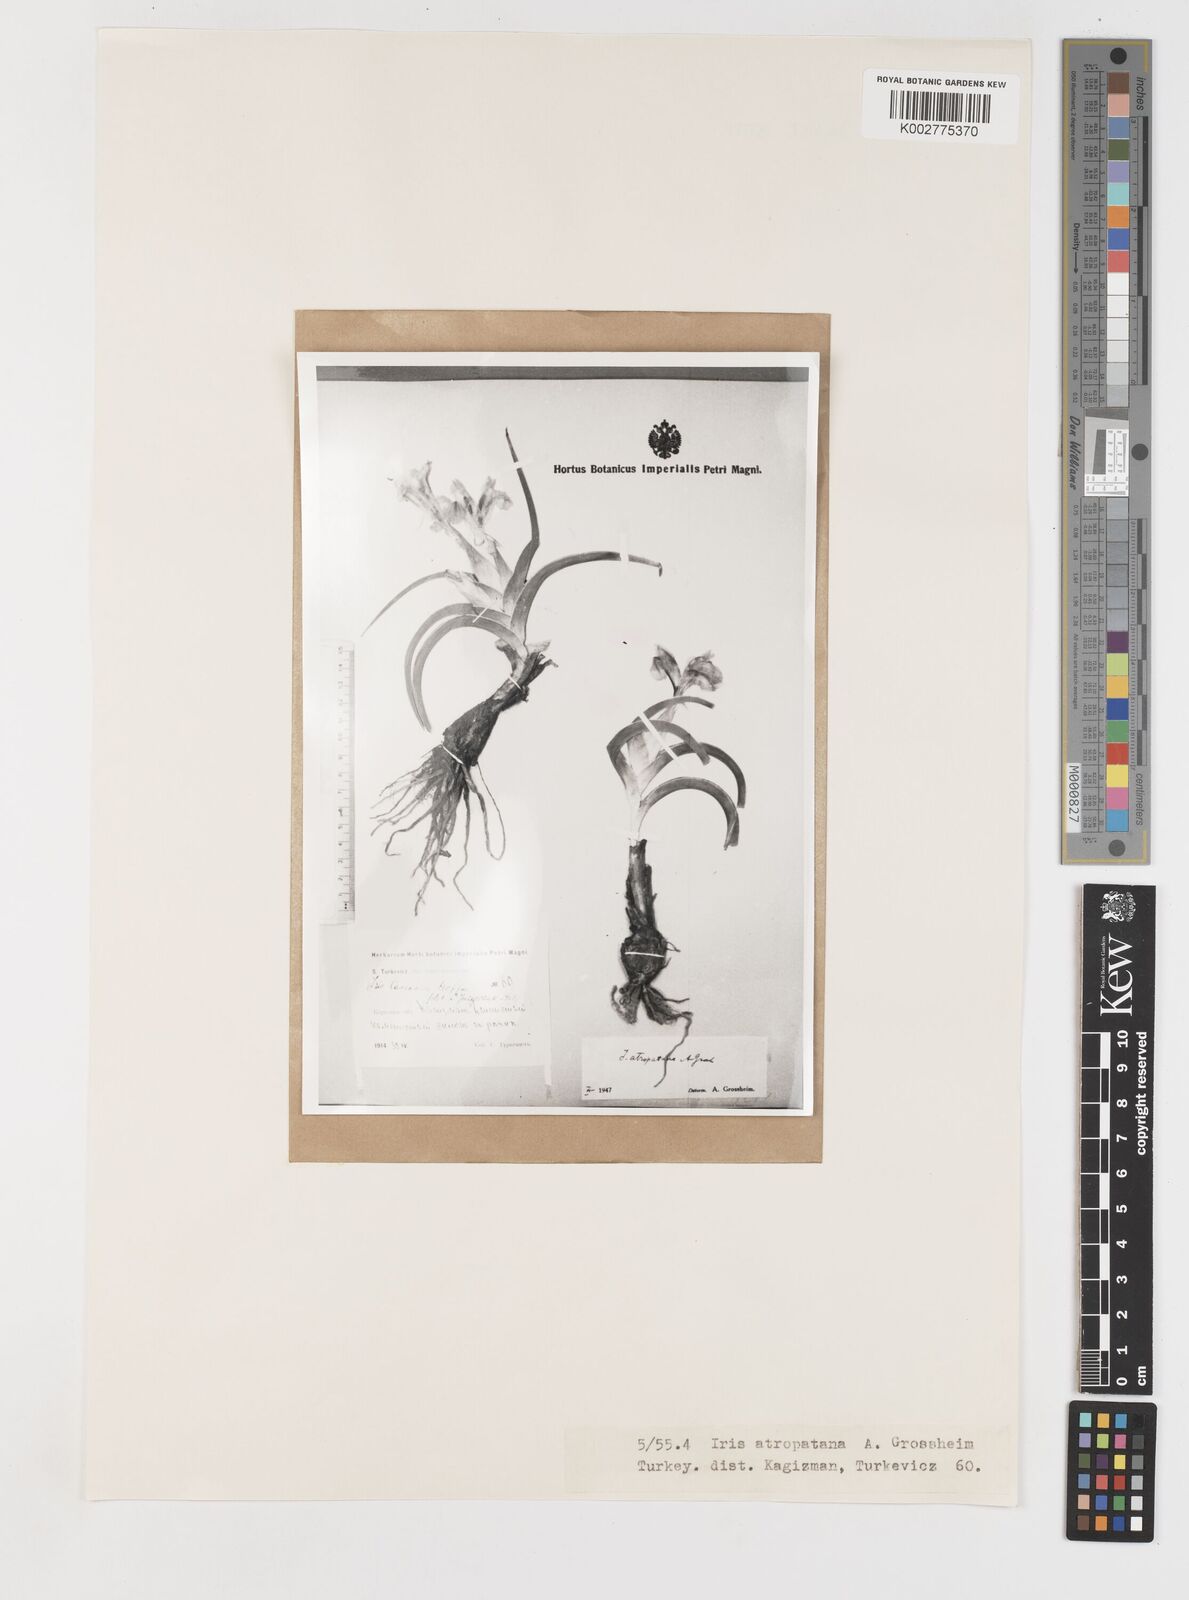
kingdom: Plantae
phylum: Tracheophyta
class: Liliopsida
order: Asparagales
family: Iridaceae
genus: Iris
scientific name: Iris caucasica
